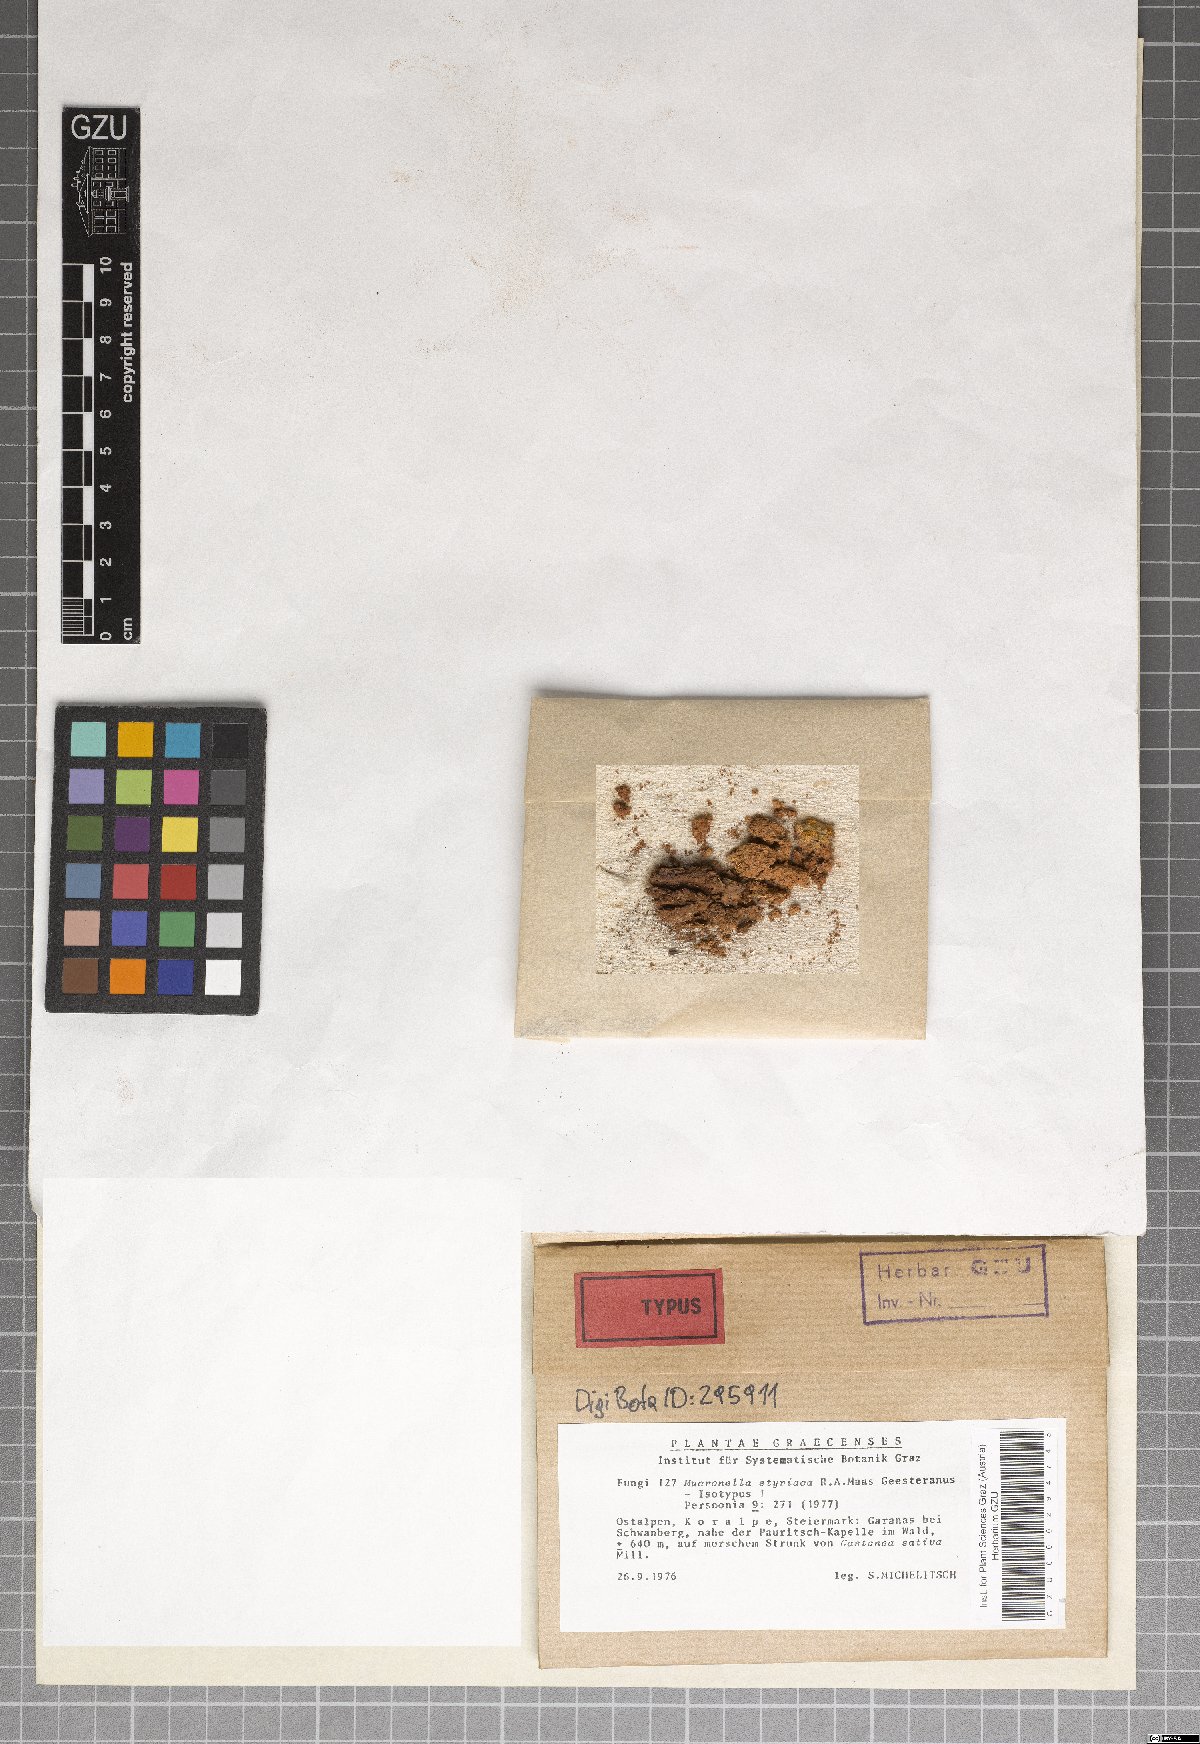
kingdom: Fungi
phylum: Basidiomycota
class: Agaricomycetes
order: Agaricales
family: Clavariaceae
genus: Mucronella
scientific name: Mucronella styriaca
